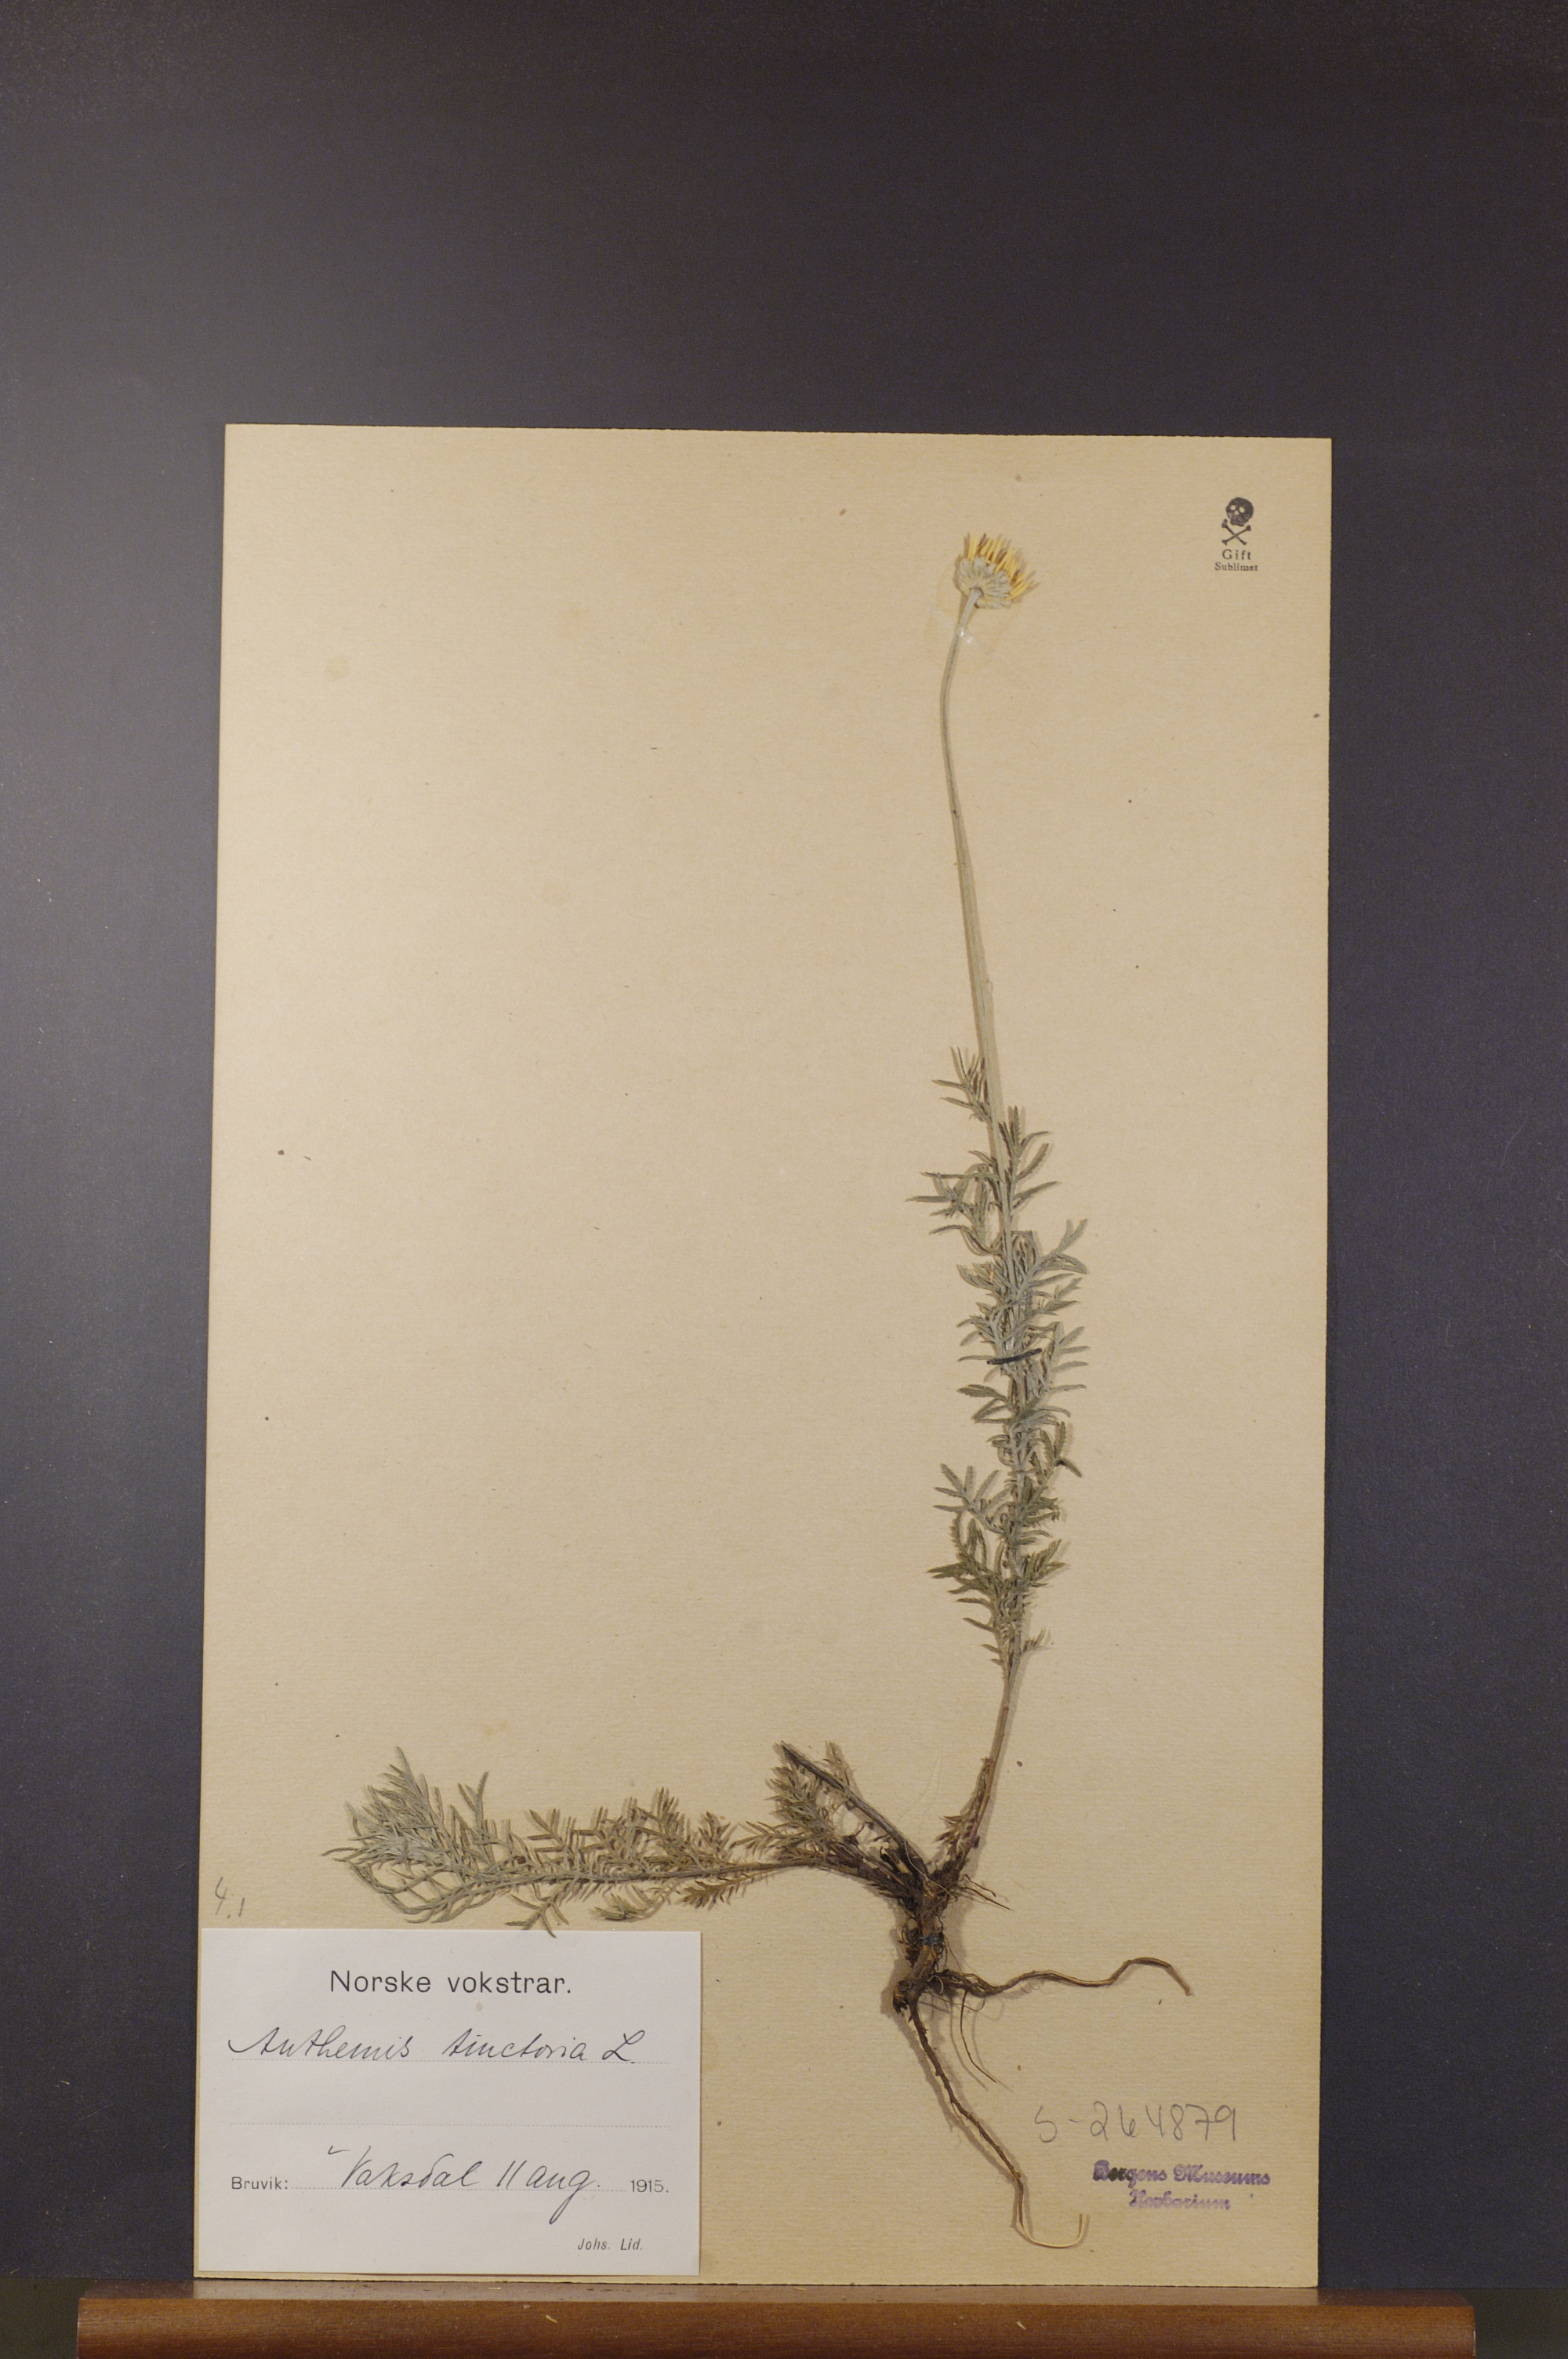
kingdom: Plantae
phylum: Tracheophyta
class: Magnoliopsida
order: Asterales
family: Asteraceae
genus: Cota
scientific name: Cota tinctoria
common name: Golden chamomile
